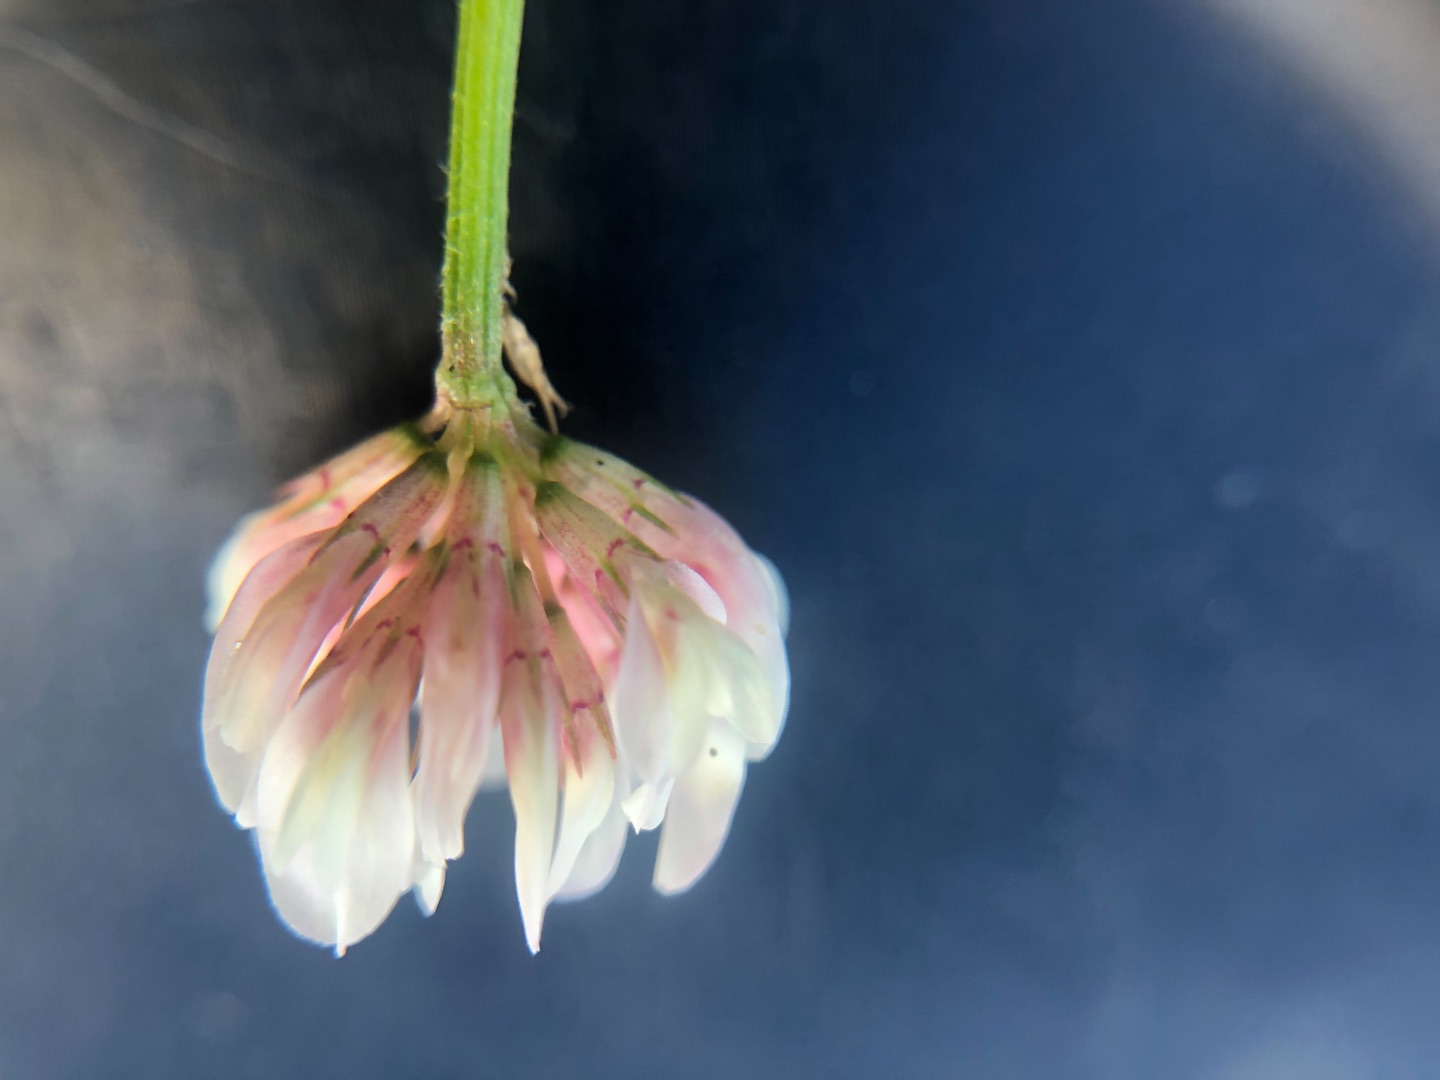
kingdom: Plantae
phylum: Tracheophyta
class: Magnoliopsida
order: Fabales
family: Fabaceae
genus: Trifolium
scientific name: Trifolium repens
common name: Hvid-kløver
